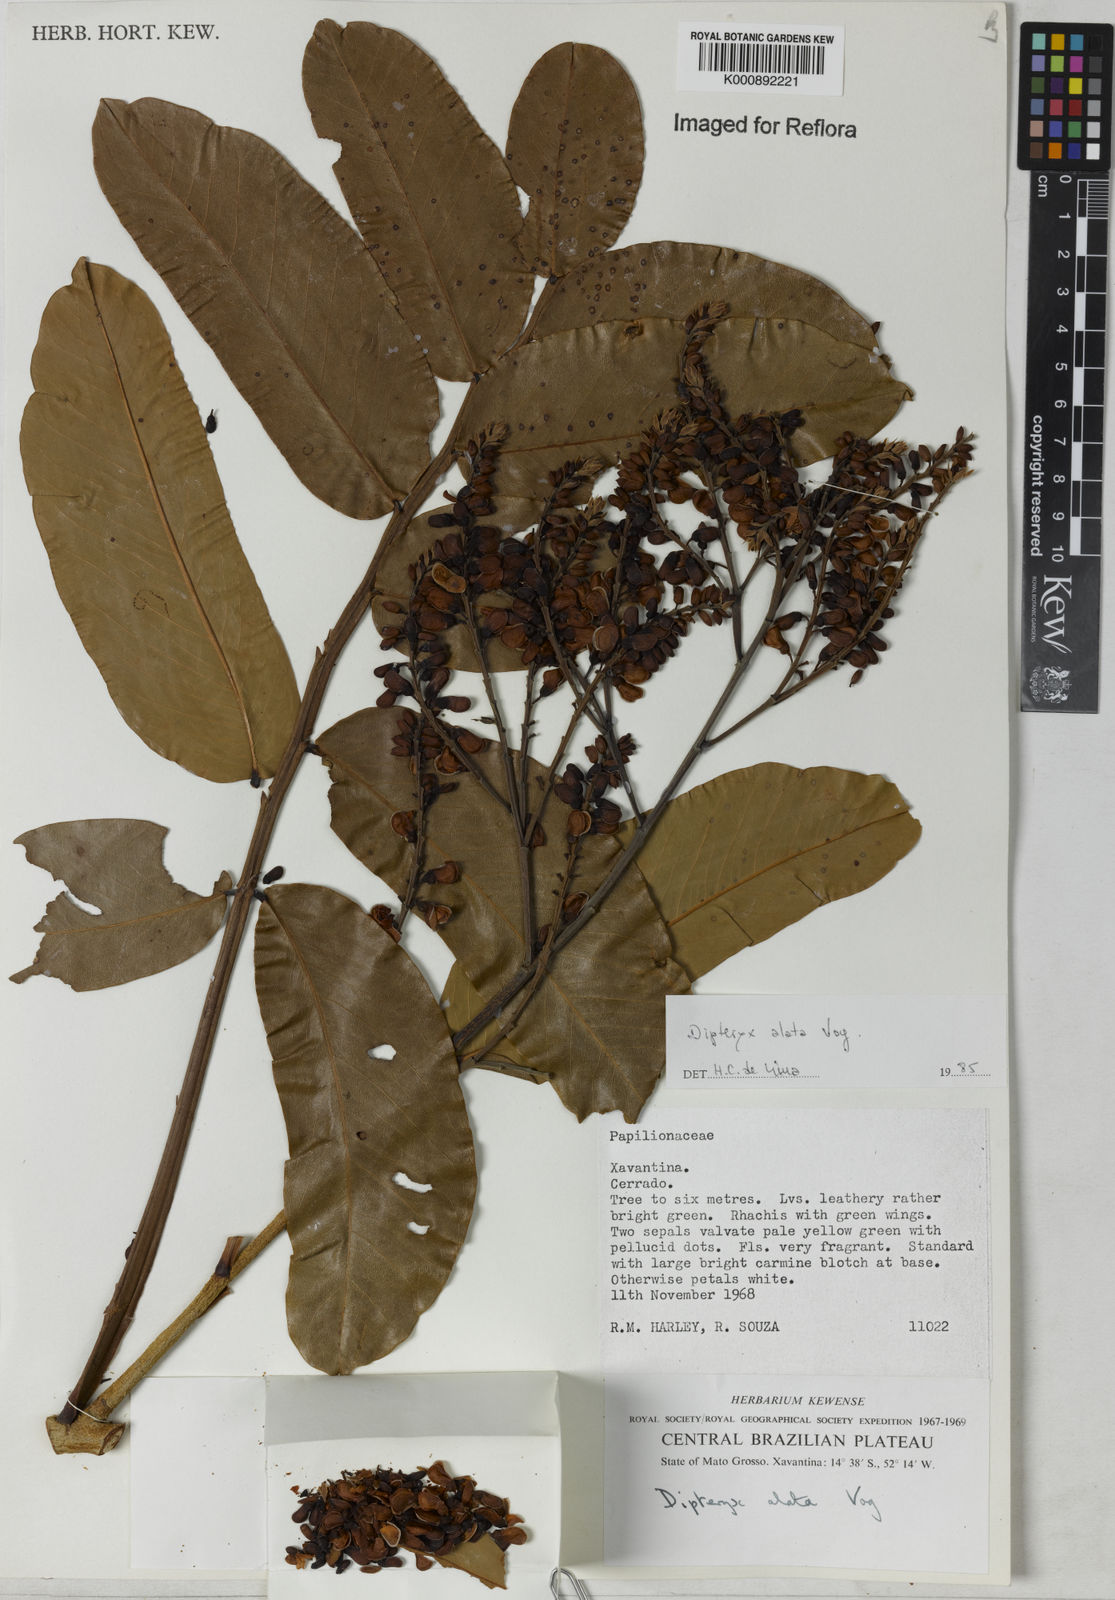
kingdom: Plantae
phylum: Tracheophyta
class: Magnoliopsida
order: Fabales
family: Fabaceae
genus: Dipteryx
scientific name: Dipteryx alata
